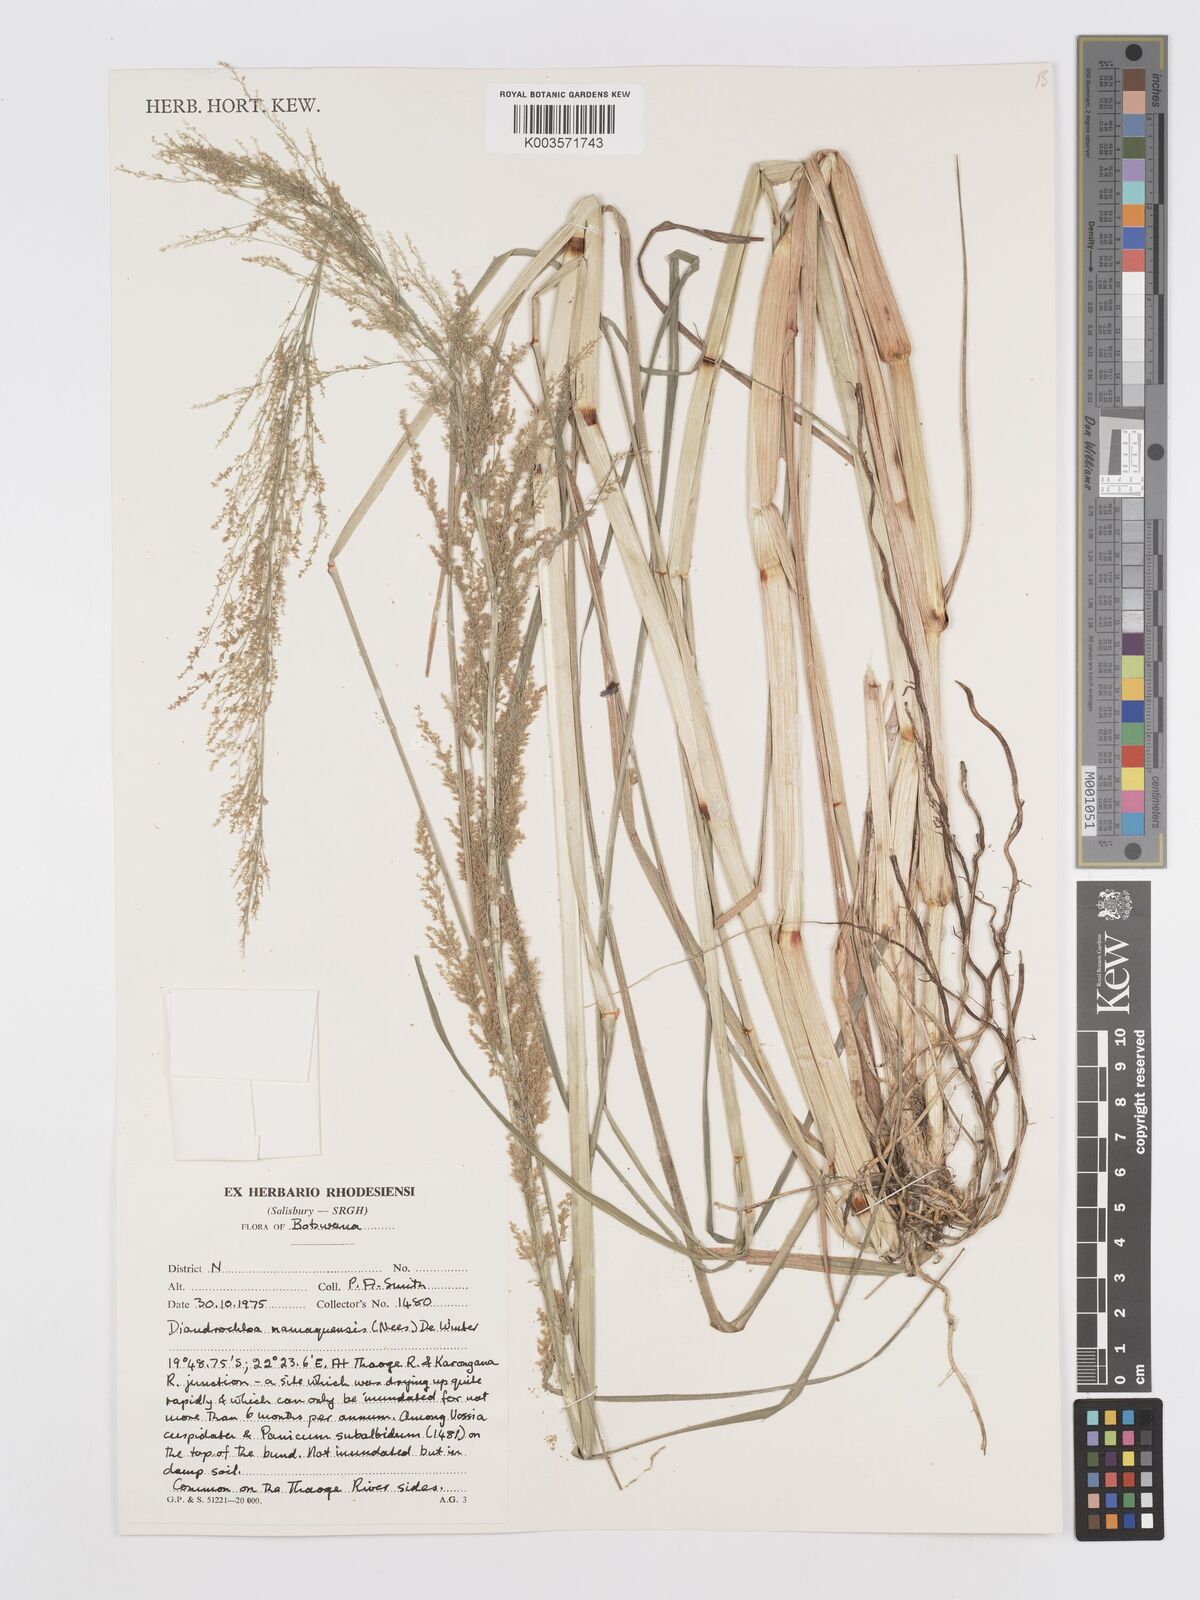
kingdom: Plantae
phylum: Tracheophyta
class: Liliopsida
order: Poales
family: Poaceae
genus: Eragrostis
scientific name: Eragrostis japonica
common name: Pond lovegrass
